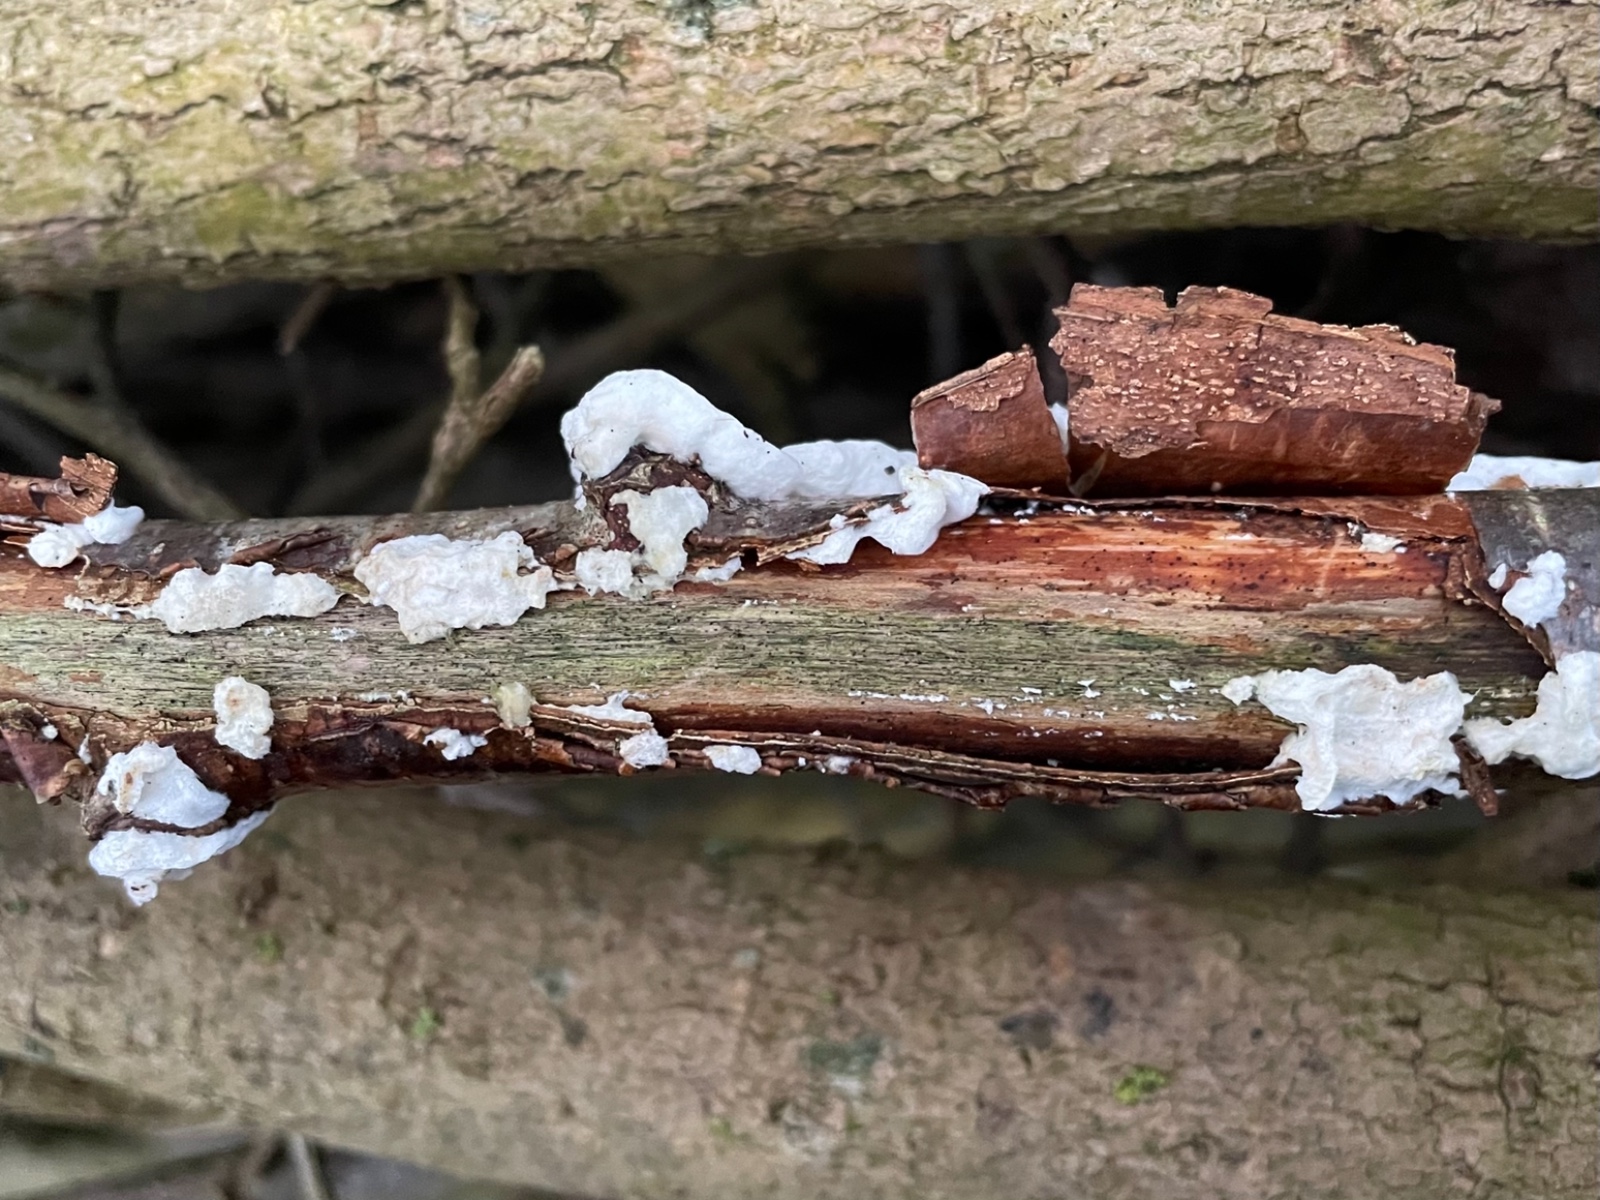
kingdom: Fungi
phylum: Basidiomycota
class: Agaricomycetes
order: Polyporales
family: Irpicaceae
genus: Byssomerulius
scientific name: Byssomerulius corium
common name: læder-åresvamp
